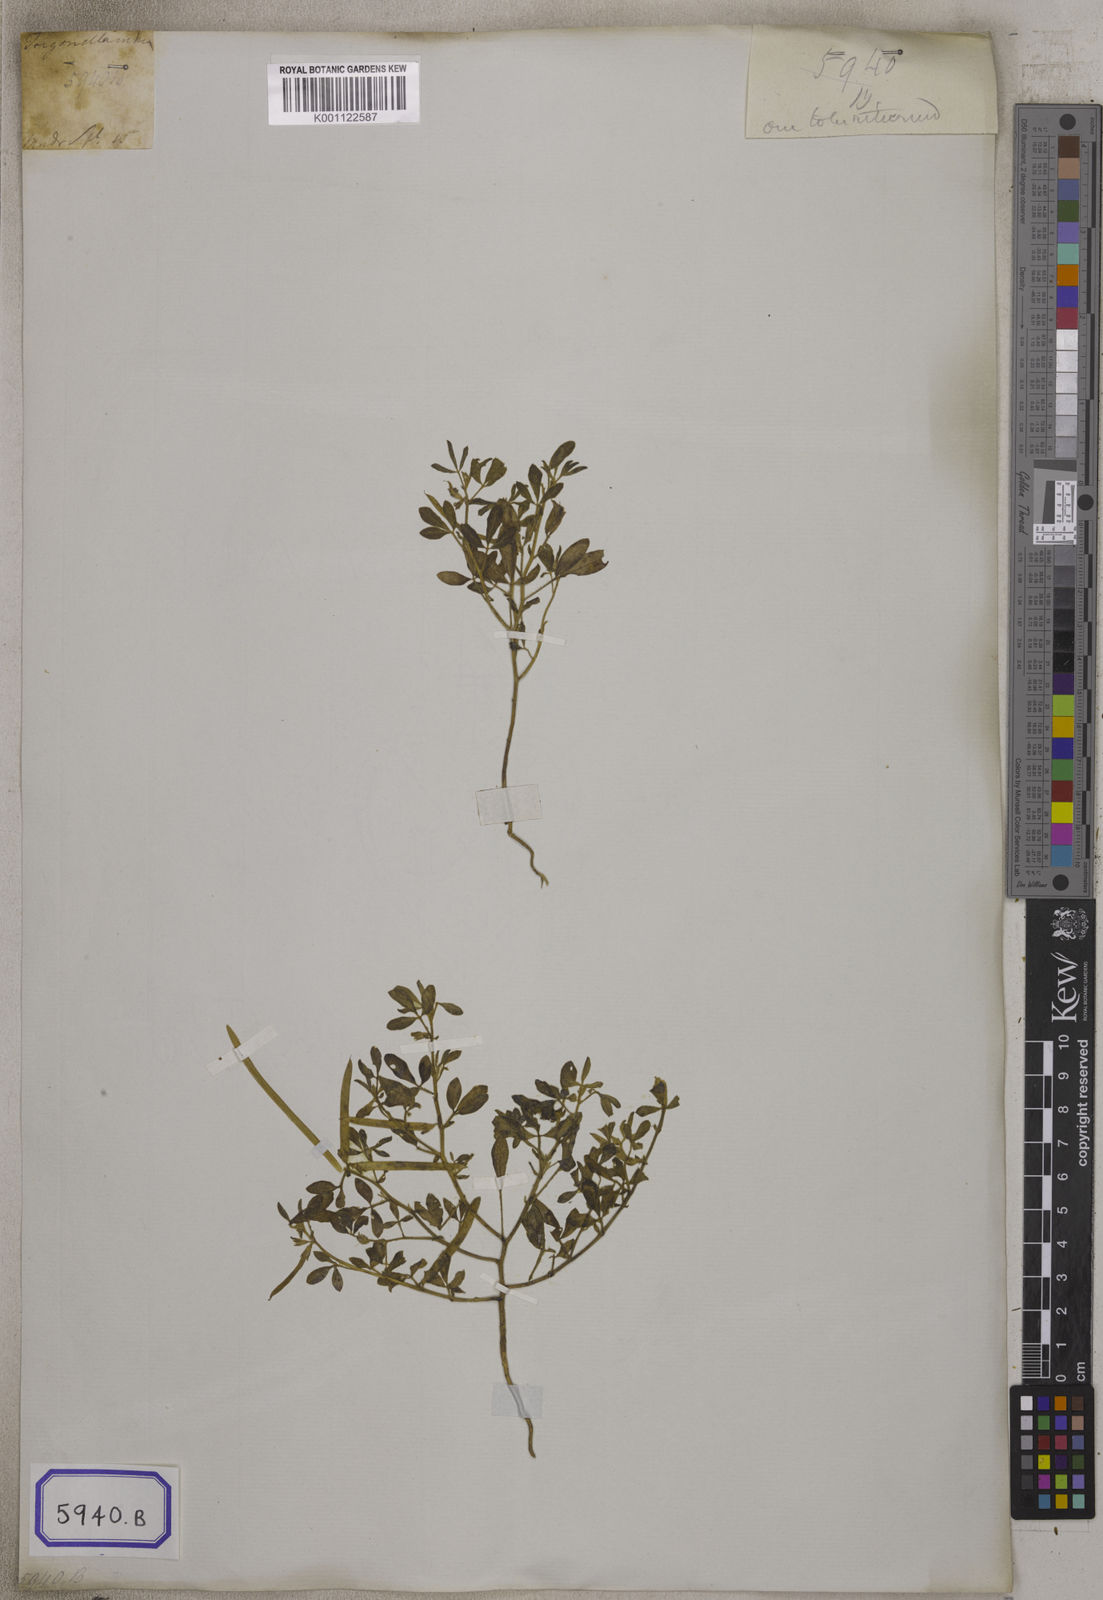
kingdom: Plantae
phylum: Tracheophyta
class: Magnoliopsida
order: Fabales
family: Fabaceae
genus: Rothia
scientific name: Rothia indica
